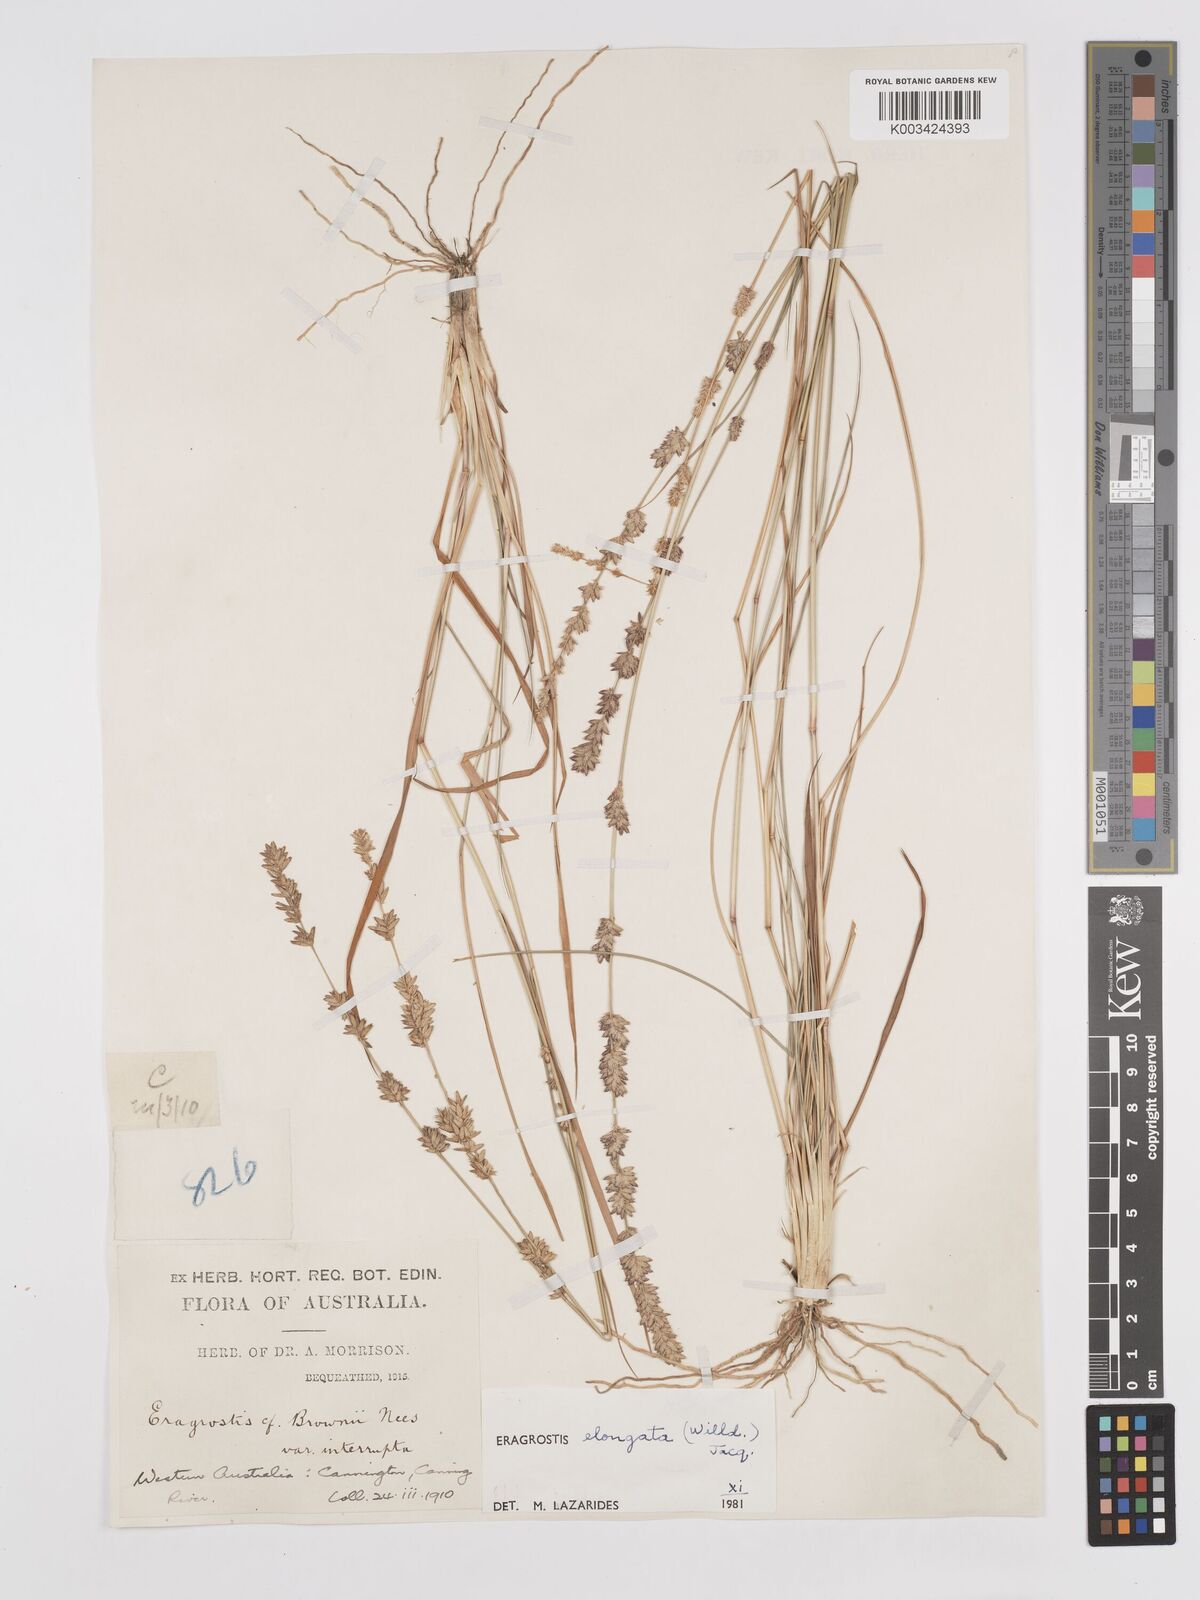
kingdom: Plantae
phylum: Tracheophyta
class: Liliopsida
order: Poales
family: Poaceae
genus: Eragrostis
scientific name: Eragrostis elongata
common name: Long lovegrass
